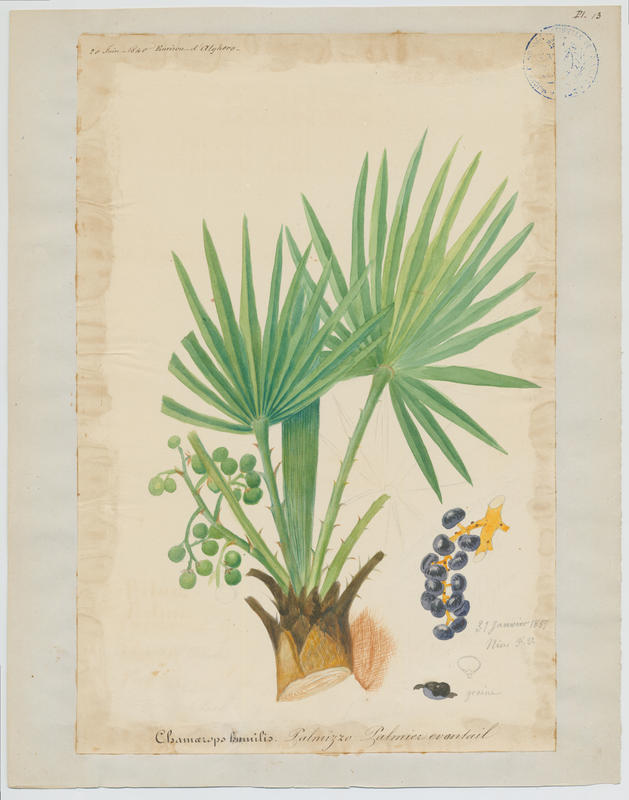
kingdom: Plantae
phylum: Tracheophyta
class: Liliopsida
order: Arecales
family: Arecaceae
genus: Chamaerops
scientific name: Chamaerops humilis
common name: Dwarf fan palm
